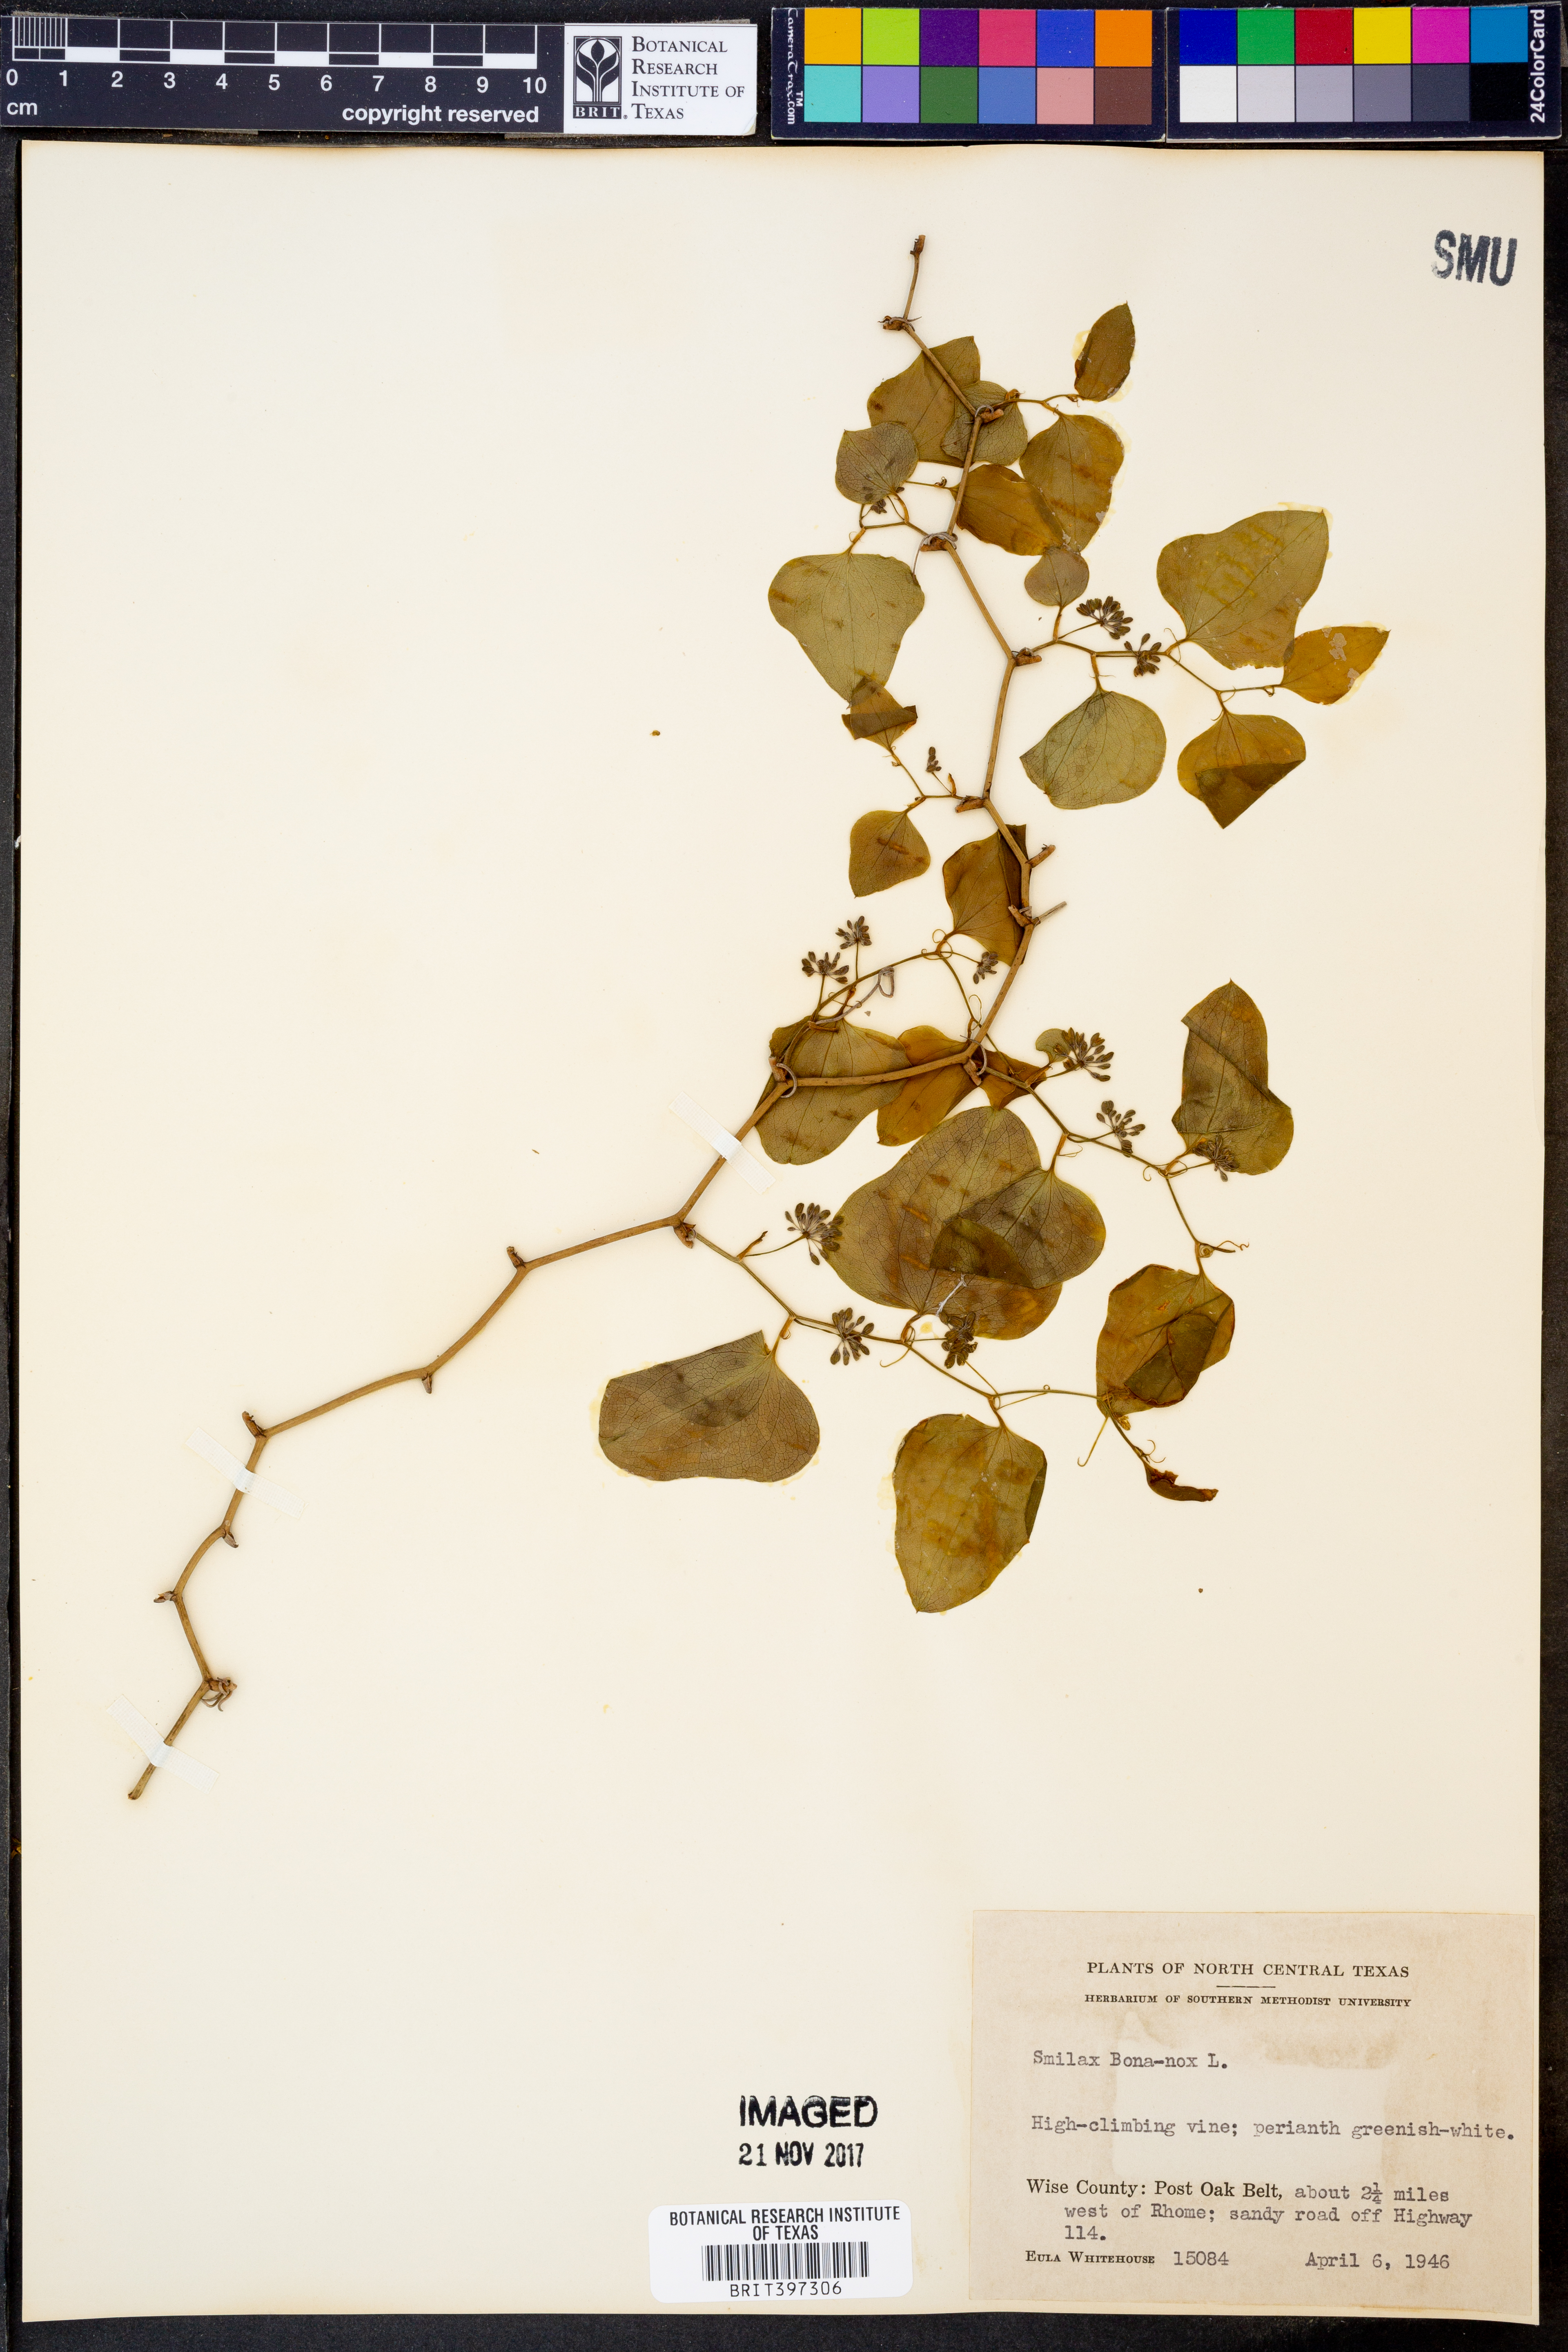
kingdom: Plantae
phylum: Tracheophyta
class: Liliopsida
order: Liliales
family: Smilacaceae
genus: Smilax
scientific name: Smilax bona-nox
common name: Catbrier
